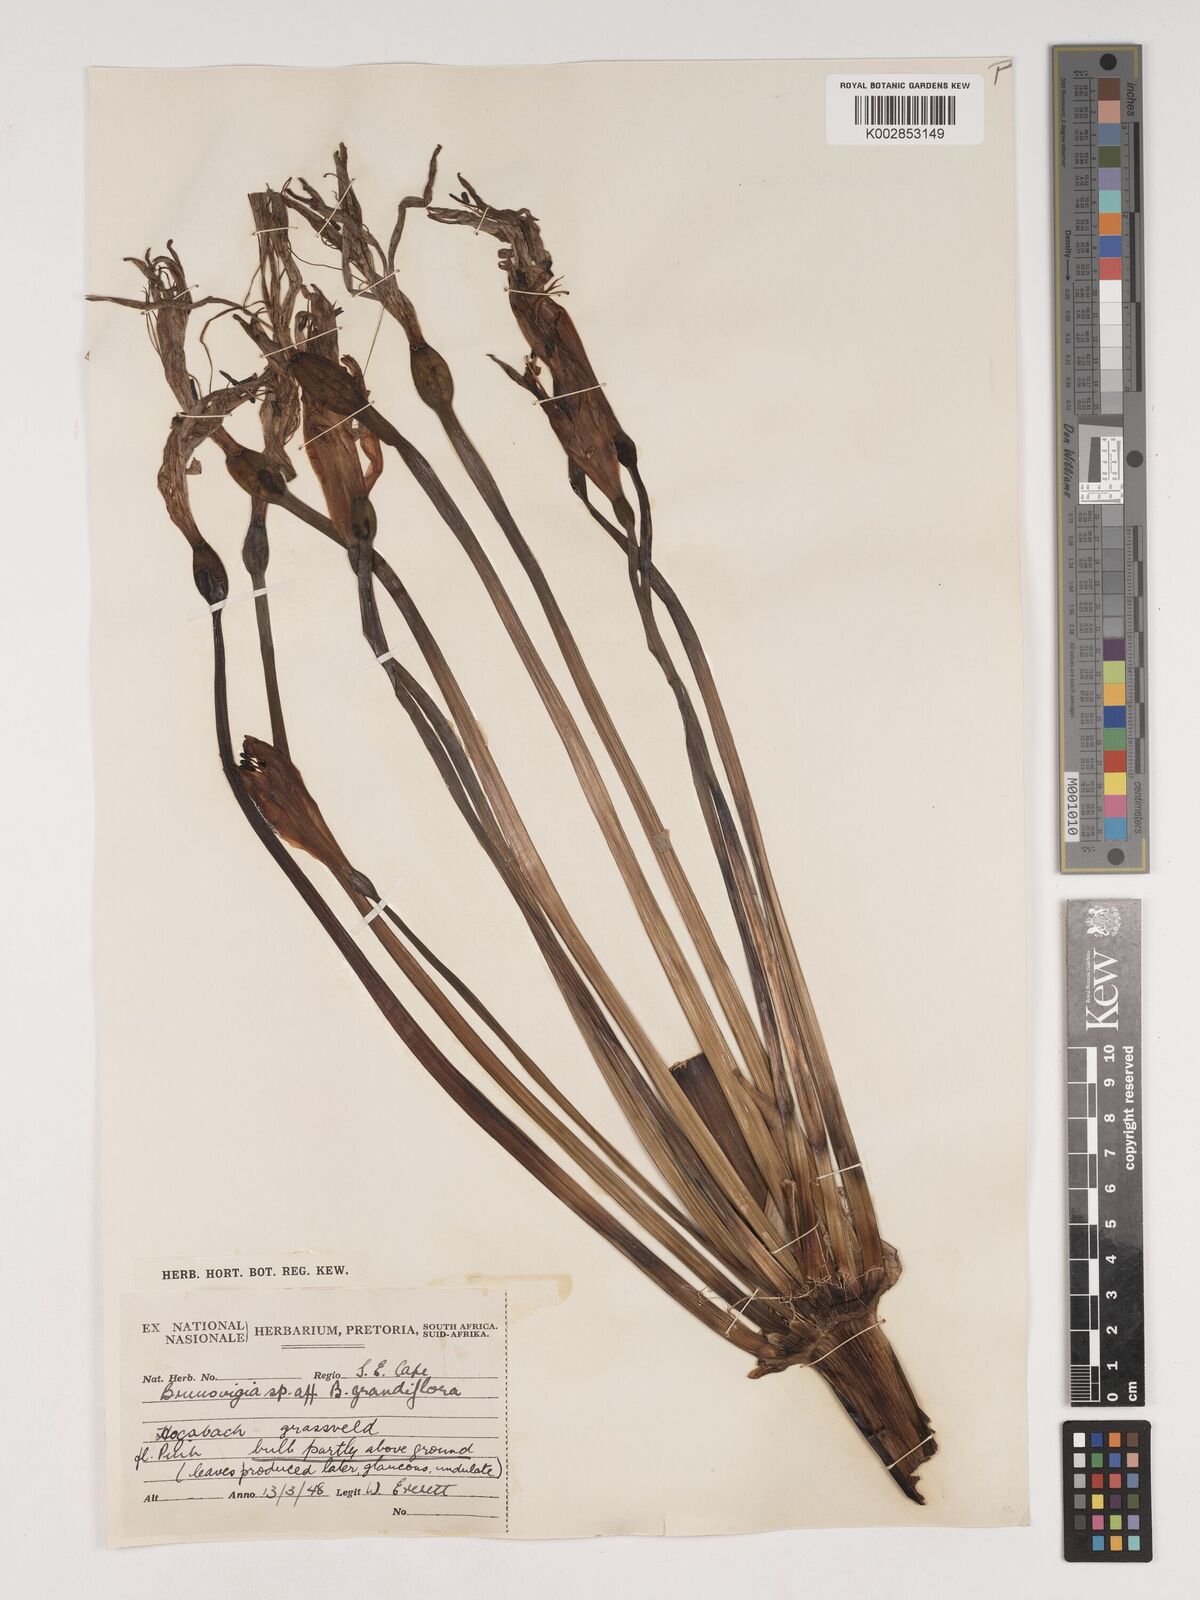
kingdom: Plantae
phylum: Tracheophyta
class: Liliopsida
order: Asparagales
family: Amaryllidaceae
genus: Brunsvigia
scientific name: Brunsvigia grandiflora
